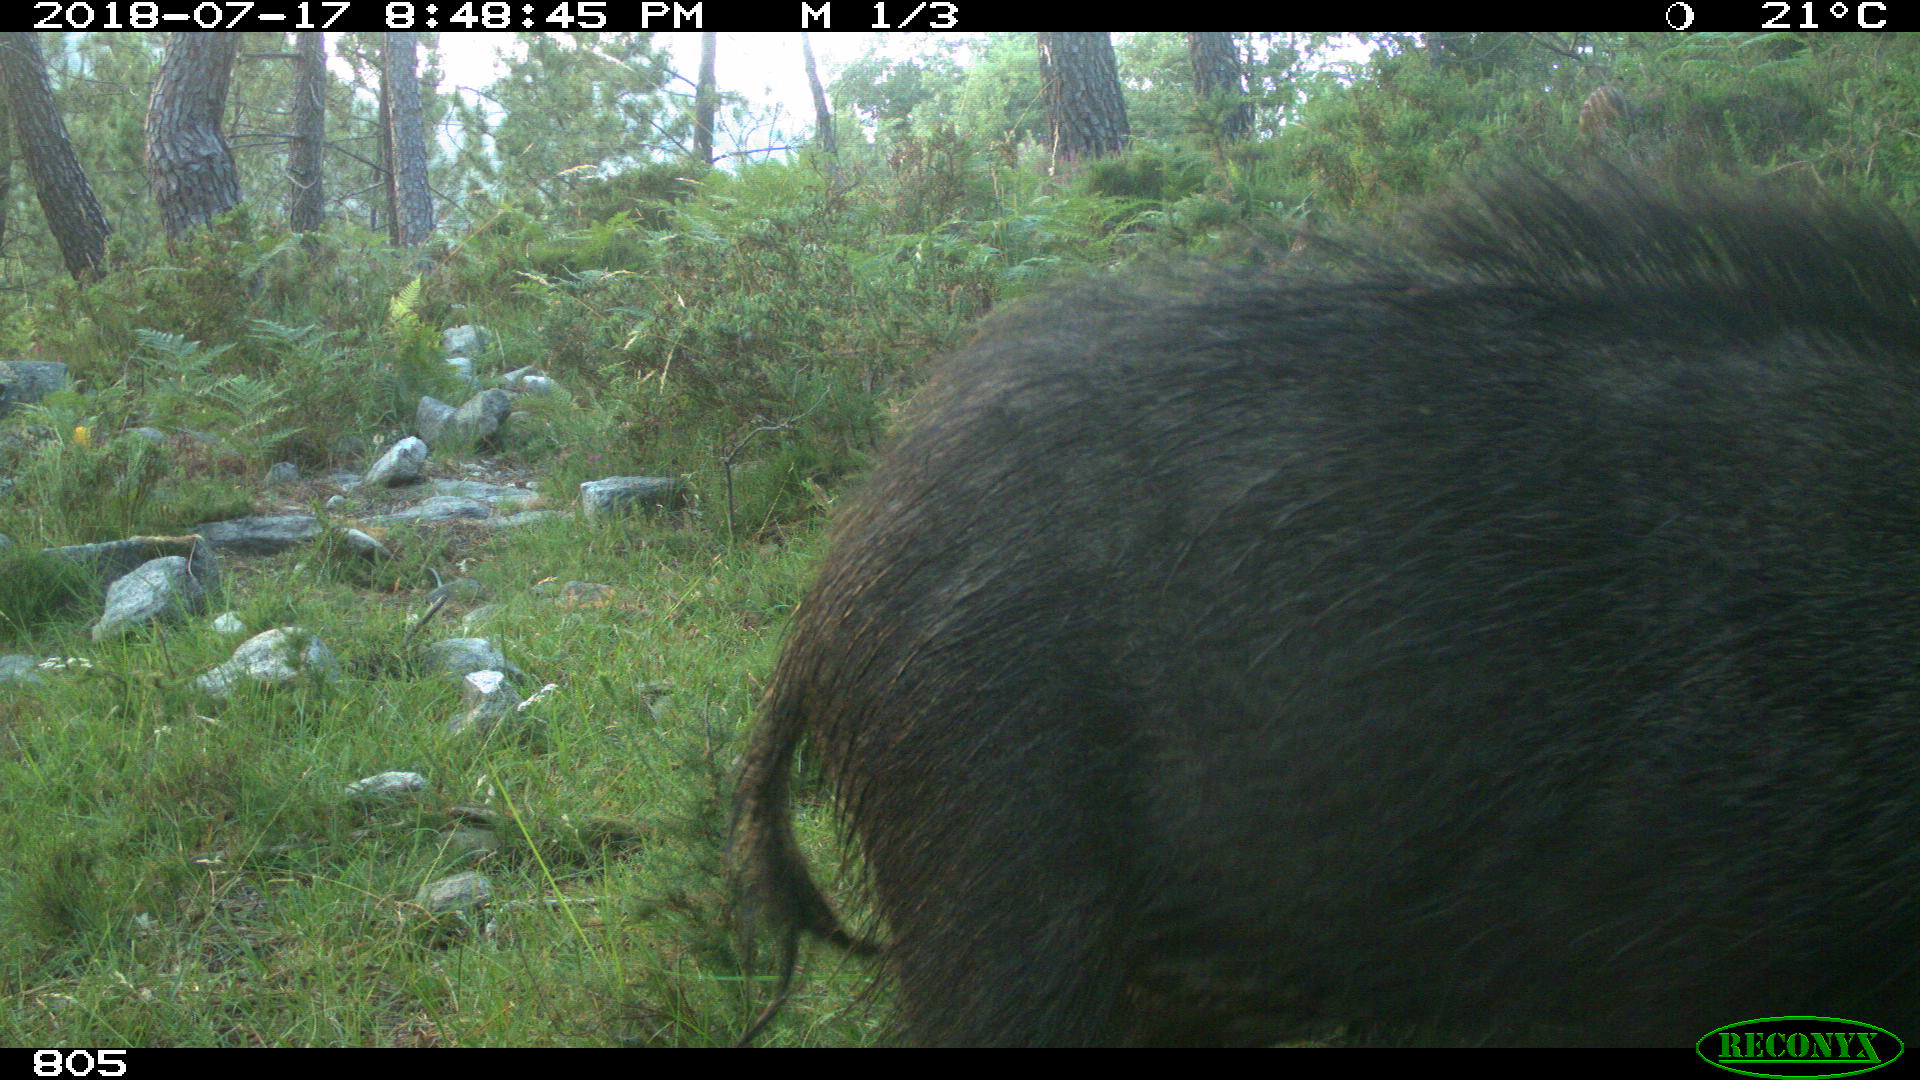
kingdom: Animalia
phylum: Chordata
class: Mammalia
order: Artiodactyla
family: Suidae
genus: Sus
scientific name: Sus scrofa
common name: Wild boar
